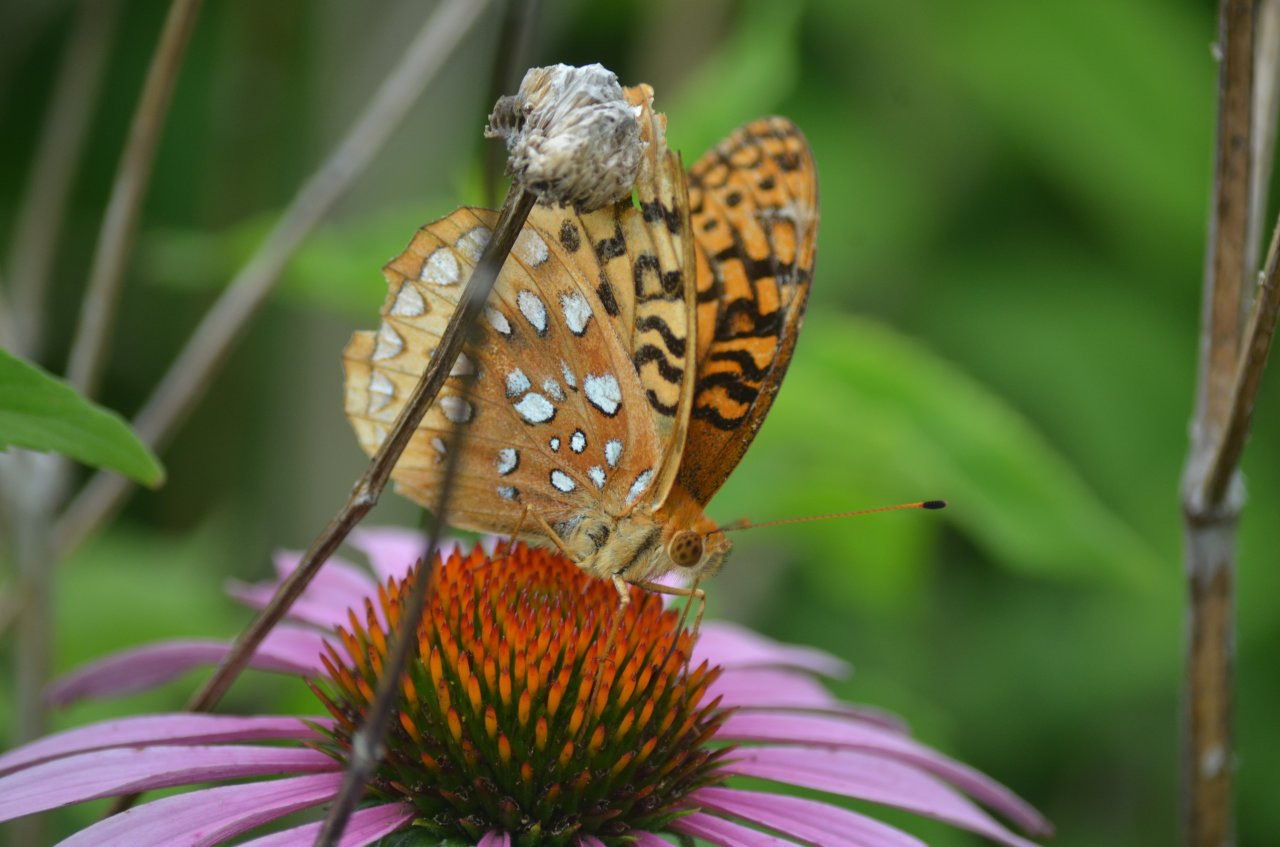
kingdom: Animalia
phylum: Arthropoda
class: Insecta
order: Lepidoptera
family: Nymphalidae
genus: Speyeria
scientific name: Speyeria cybele
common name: Great Spangled Fritillary
